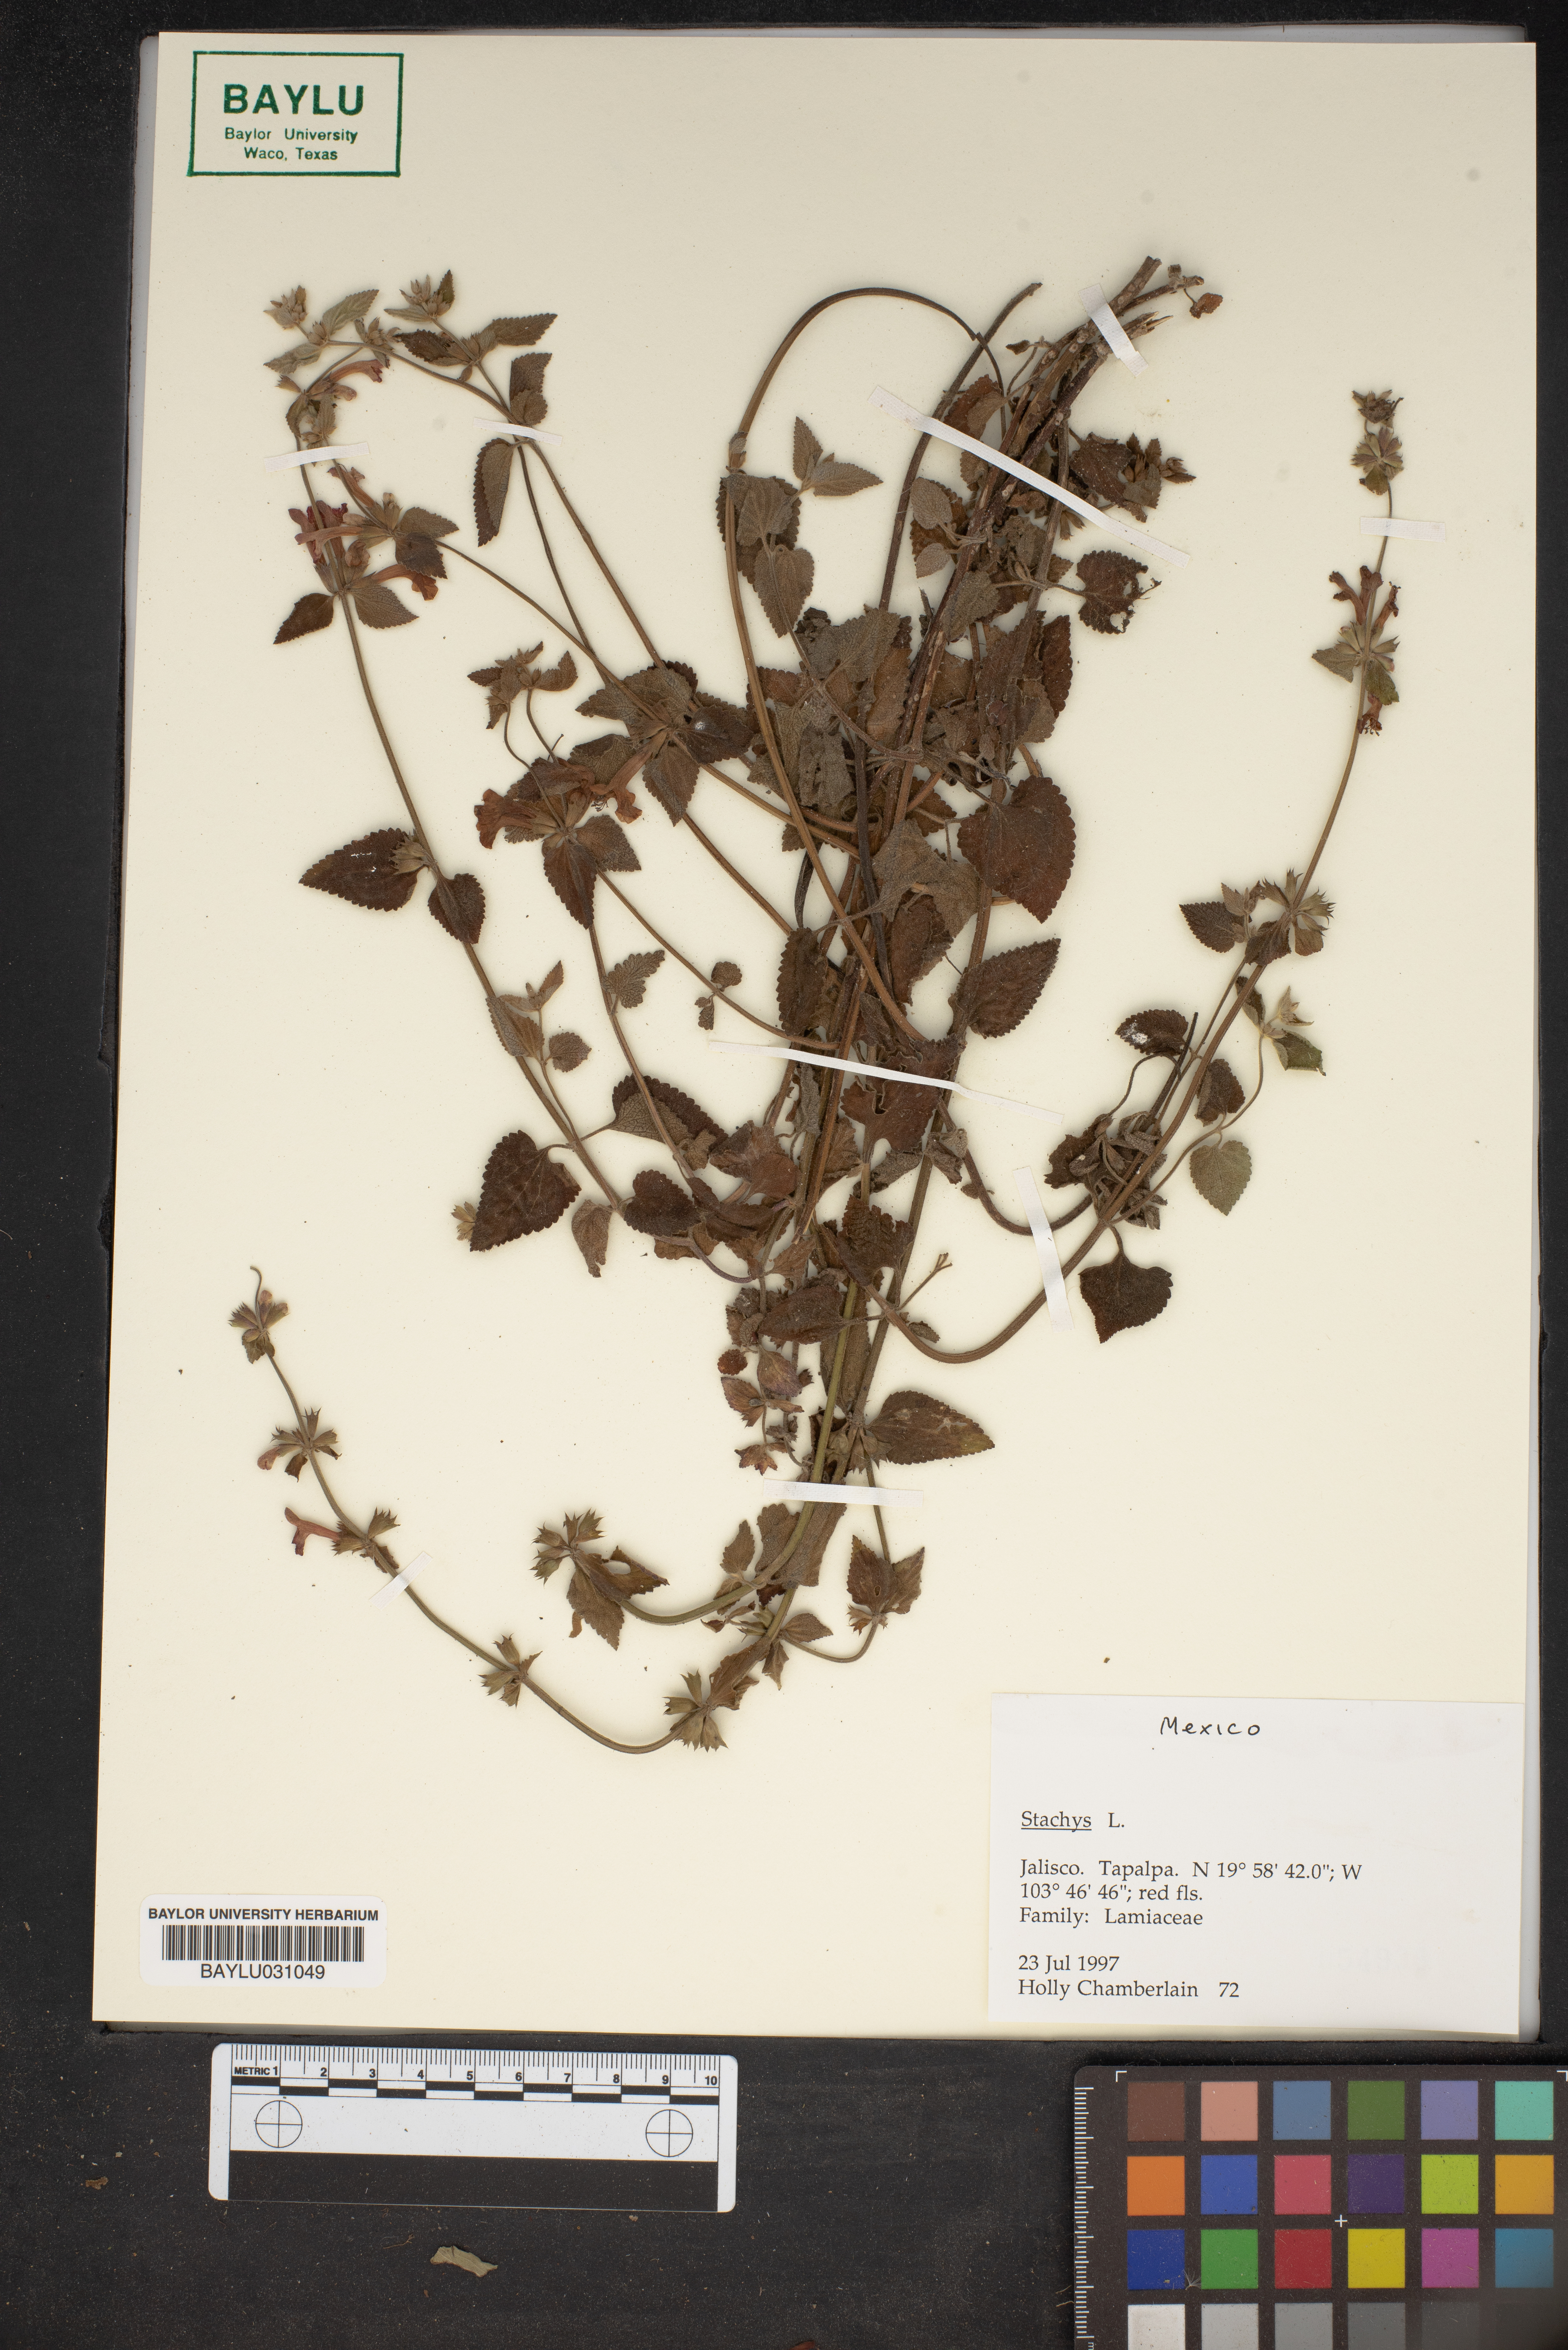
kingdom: Plantae
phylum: Tracheophyta
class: Magnoliopsida
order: Lamiales
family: Lamiaceae
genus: Stachys
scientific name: Stachys
